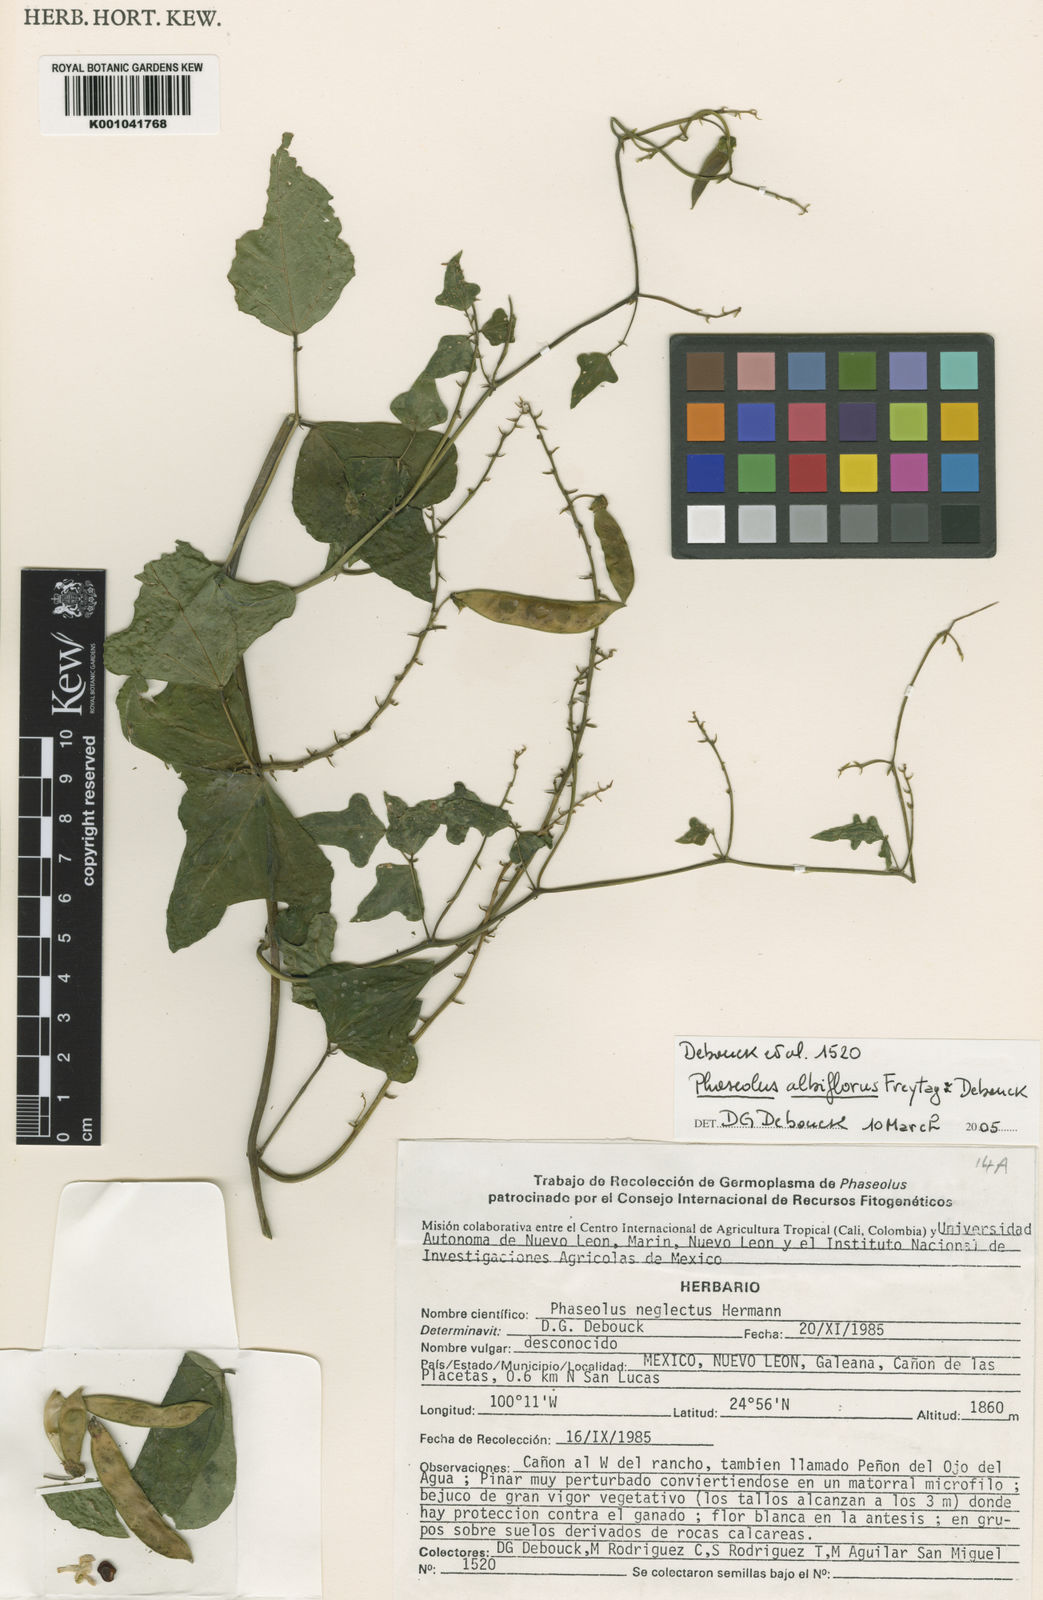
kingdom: Plantae
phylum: Tracheophyta
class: Magnoliopsida
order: Fabales
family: Fabaceae
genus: Phaseolus
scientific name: Phaseolus albiflorus
